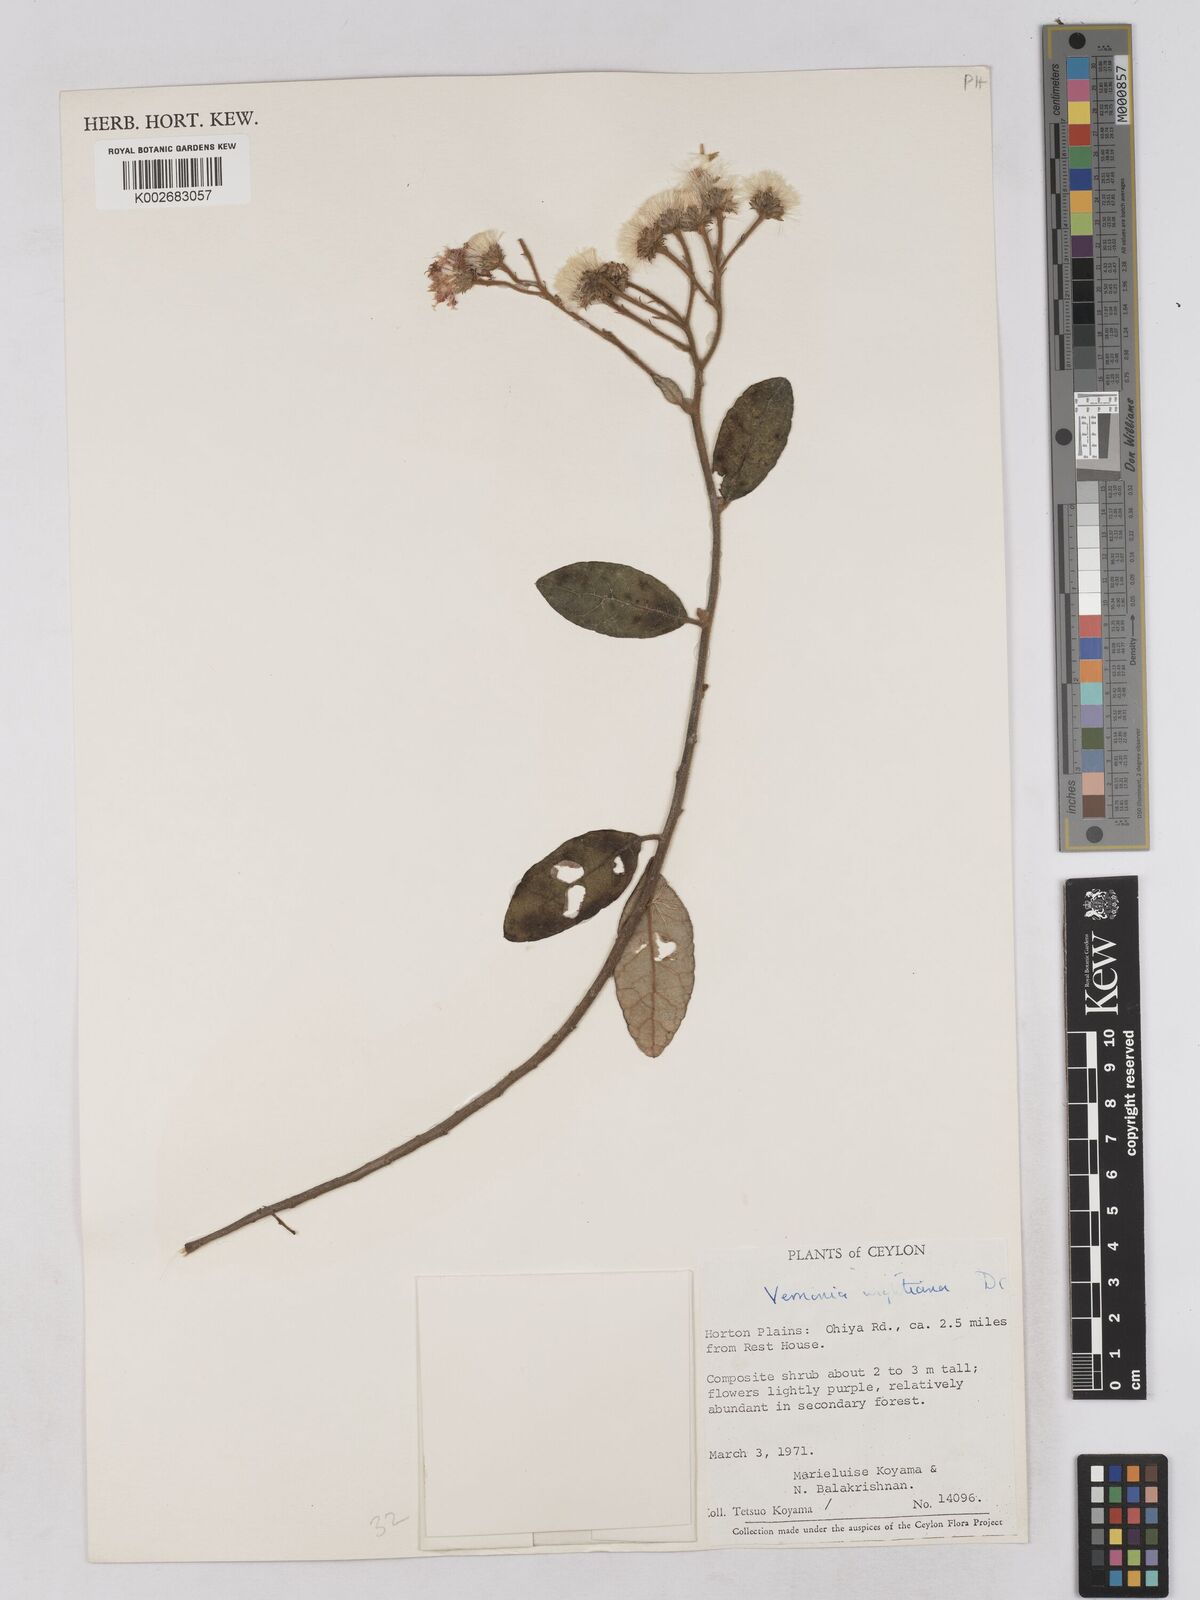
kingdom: Plantae
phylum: Tracheophyta
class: Magnoliopsida
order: Asterales
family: Asteraceae
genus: Uniyala
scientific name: Uniyala wightiana
